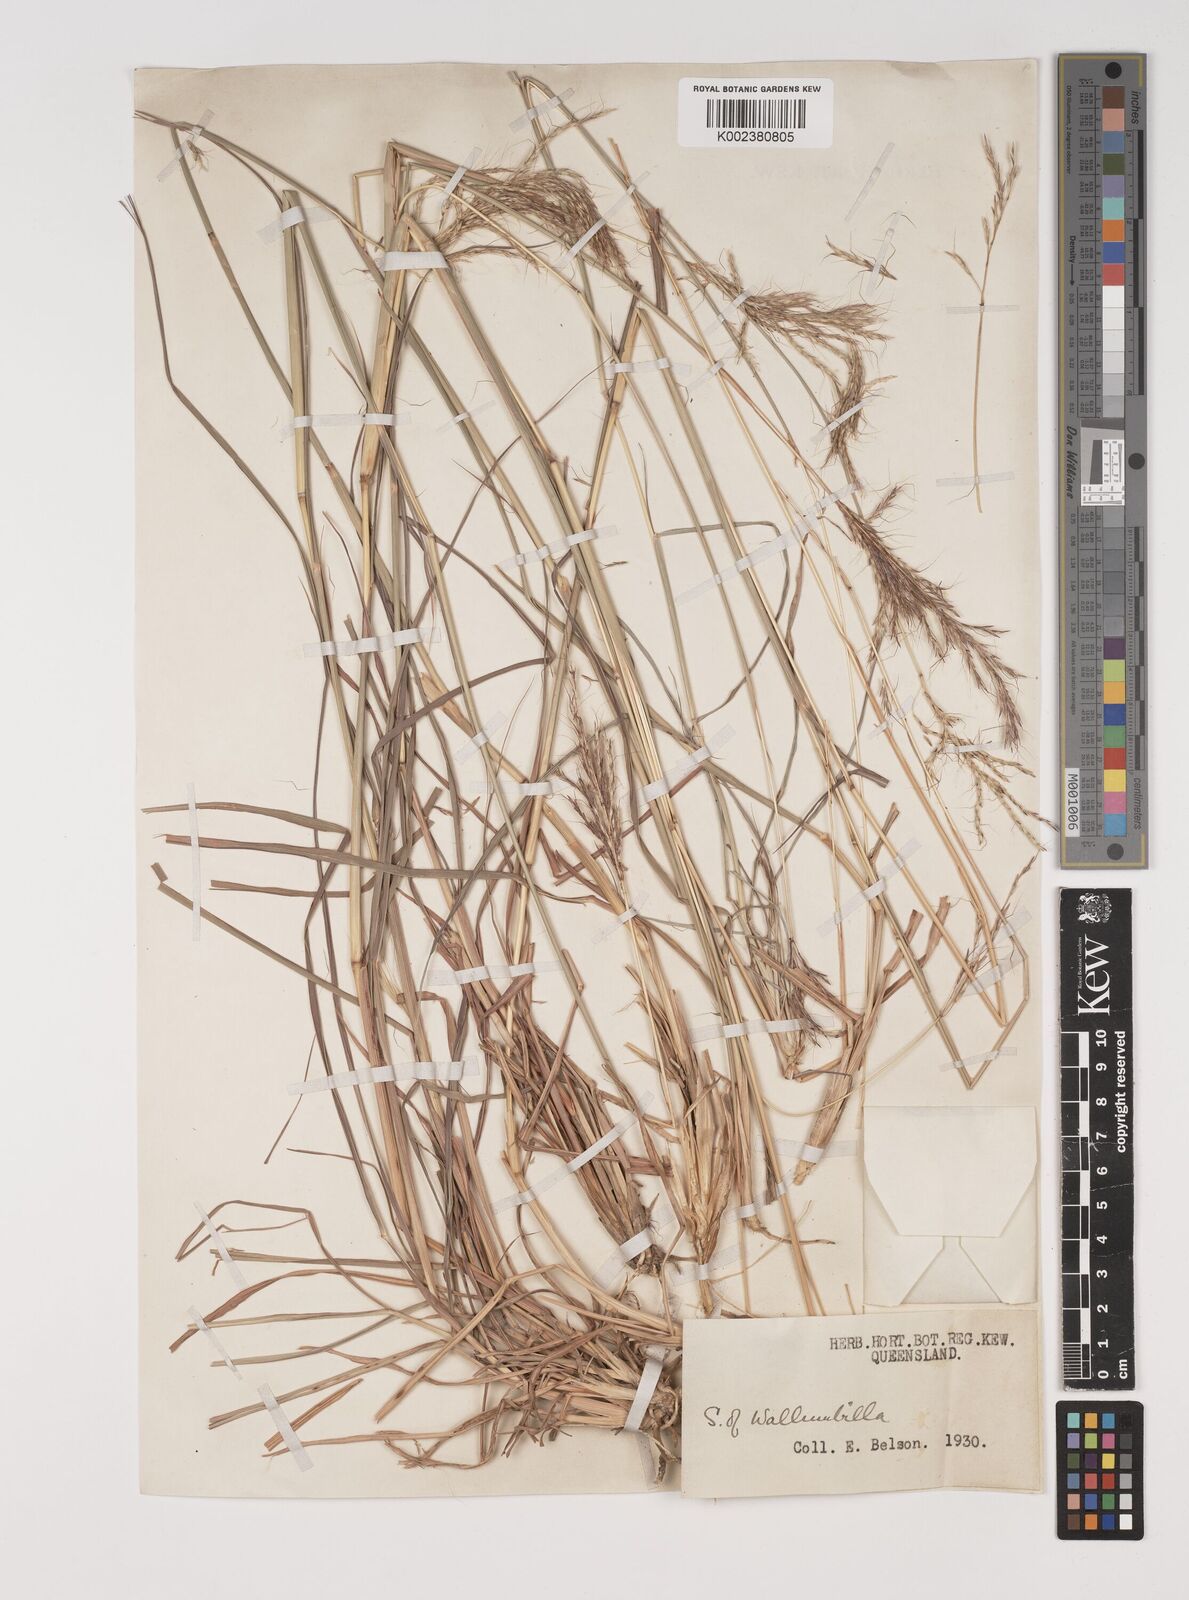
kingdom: Plantae
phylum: Tracheophyta
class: Liliopsida
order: Poales
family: Poaceae
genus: Bothriochloa
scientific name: Bothriochloa bladhii
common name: Caucasian bluestem
